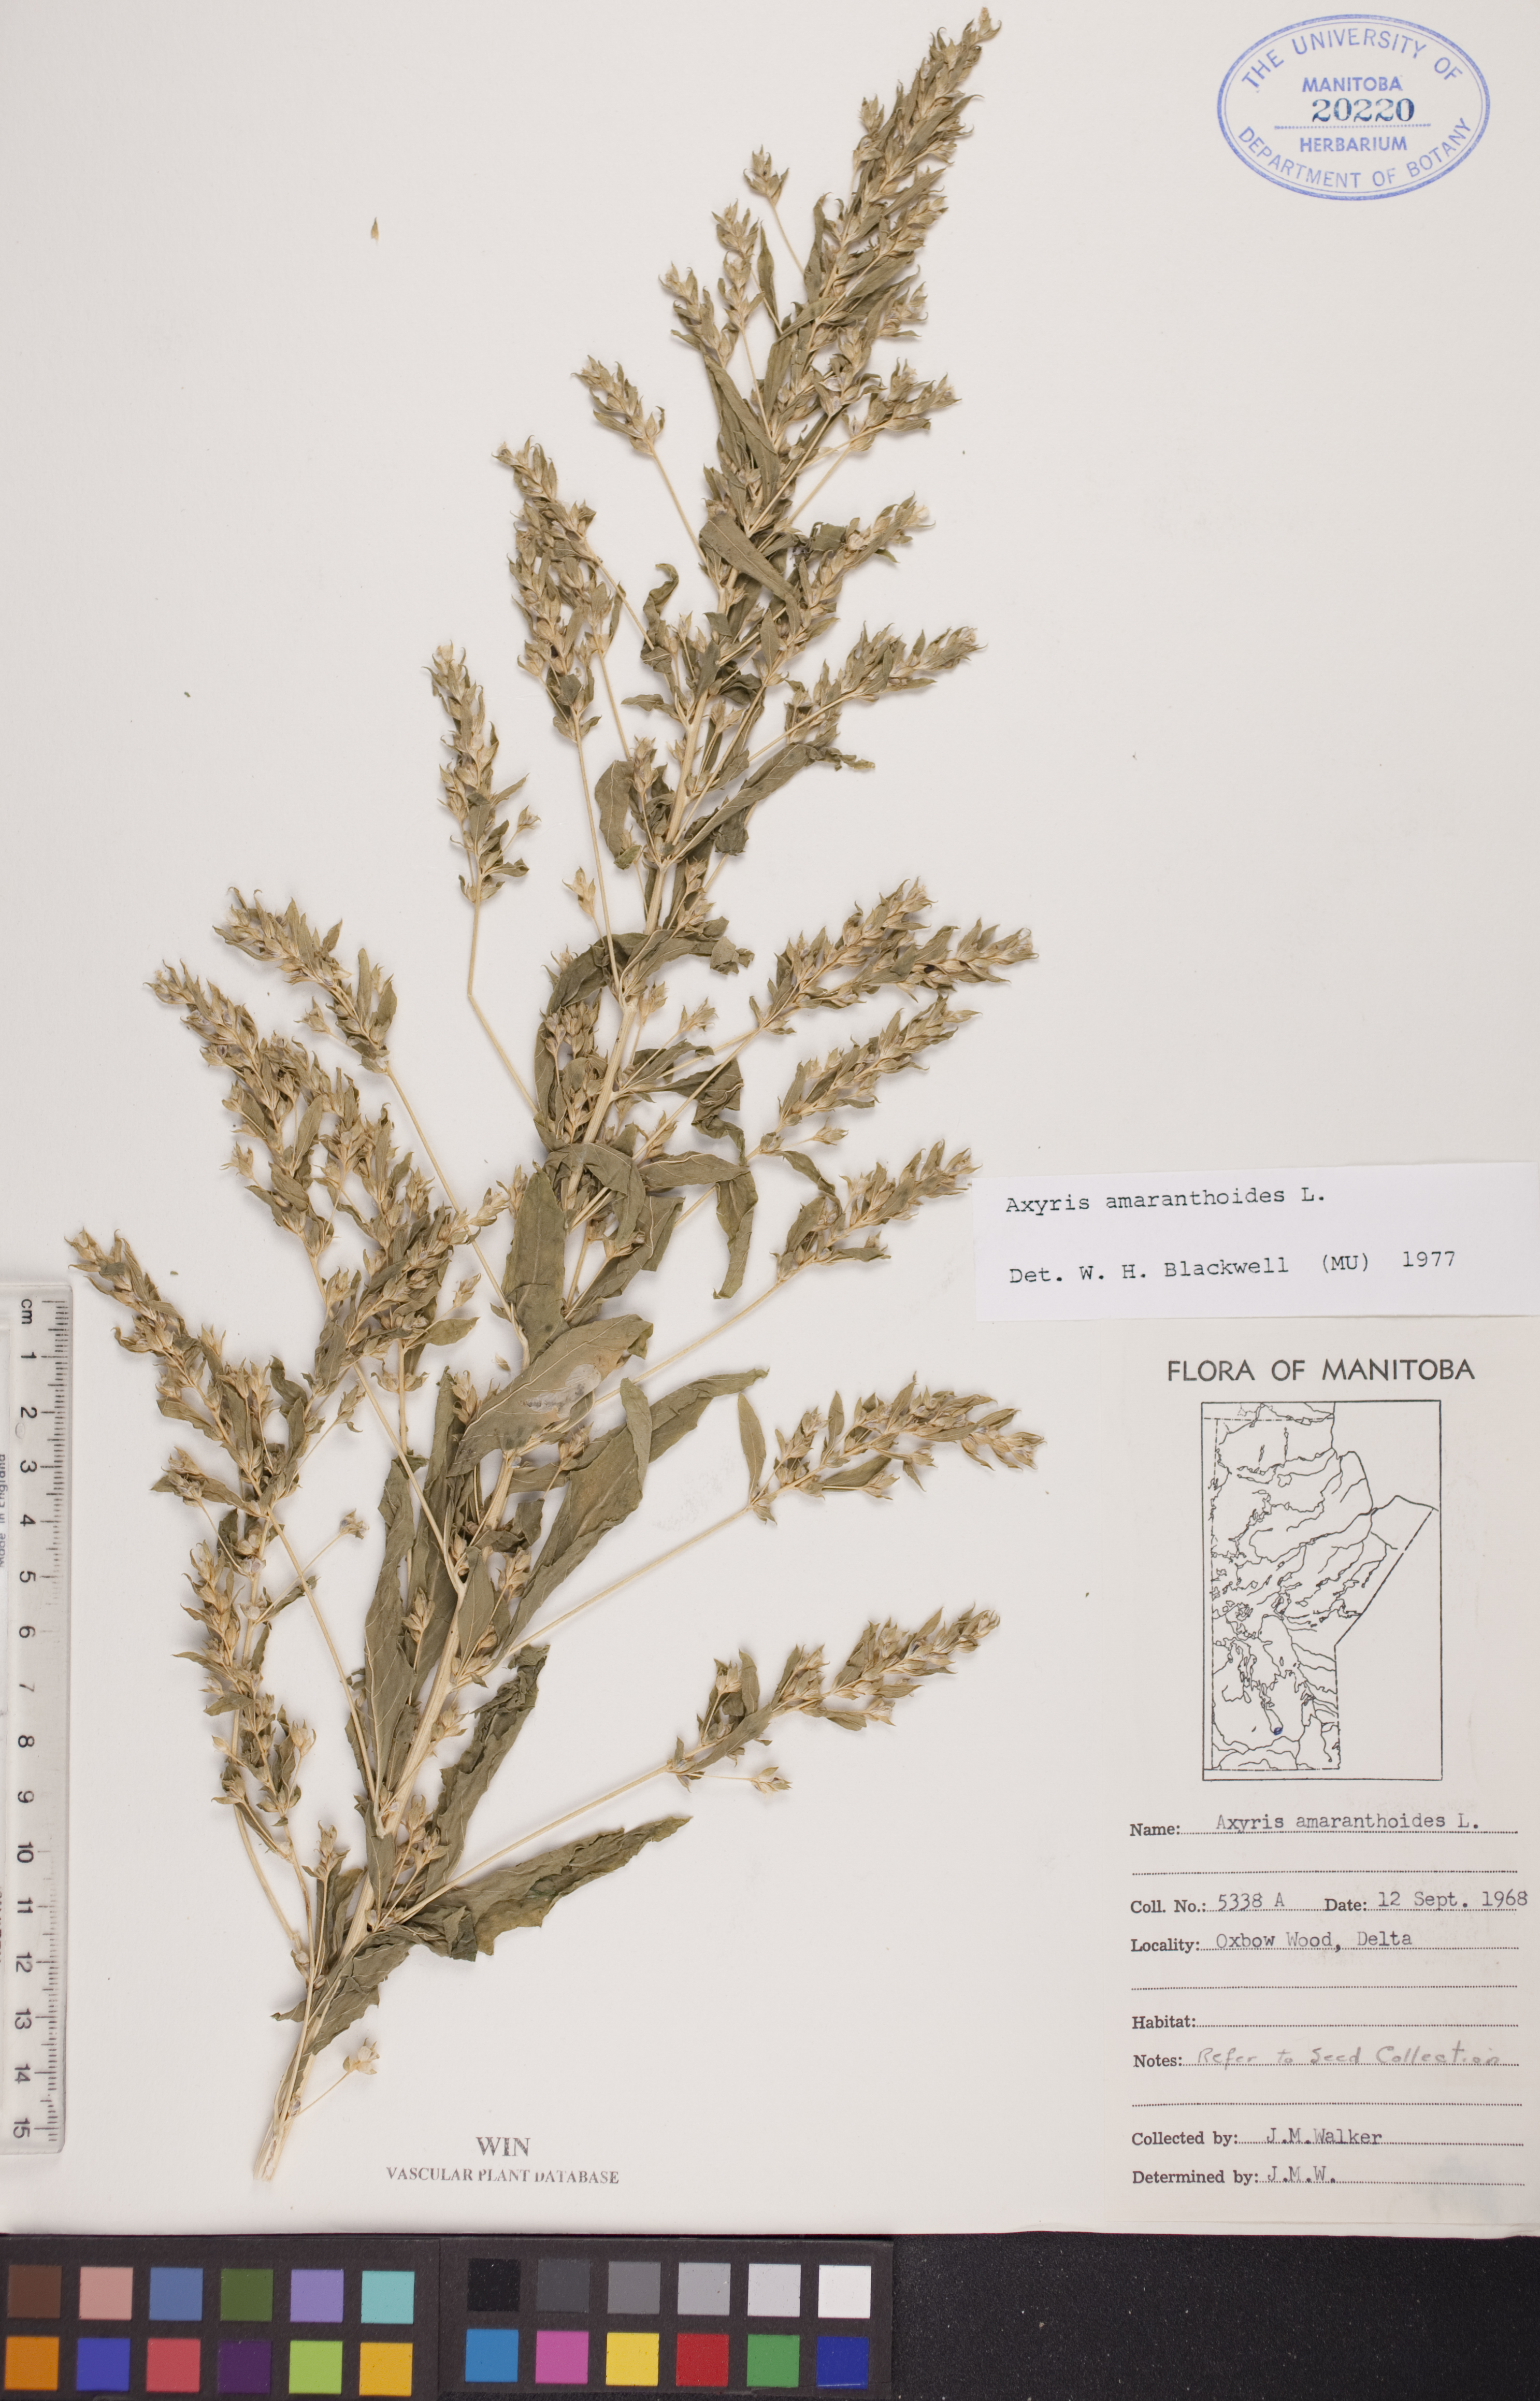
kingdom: Plantae
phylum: Tracheophyta
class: Magnoliopsida
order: Caryophyllales
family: Amaranthaceae
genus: Axyris
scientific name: Axyris amaranthoides
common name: Russian pigweed
